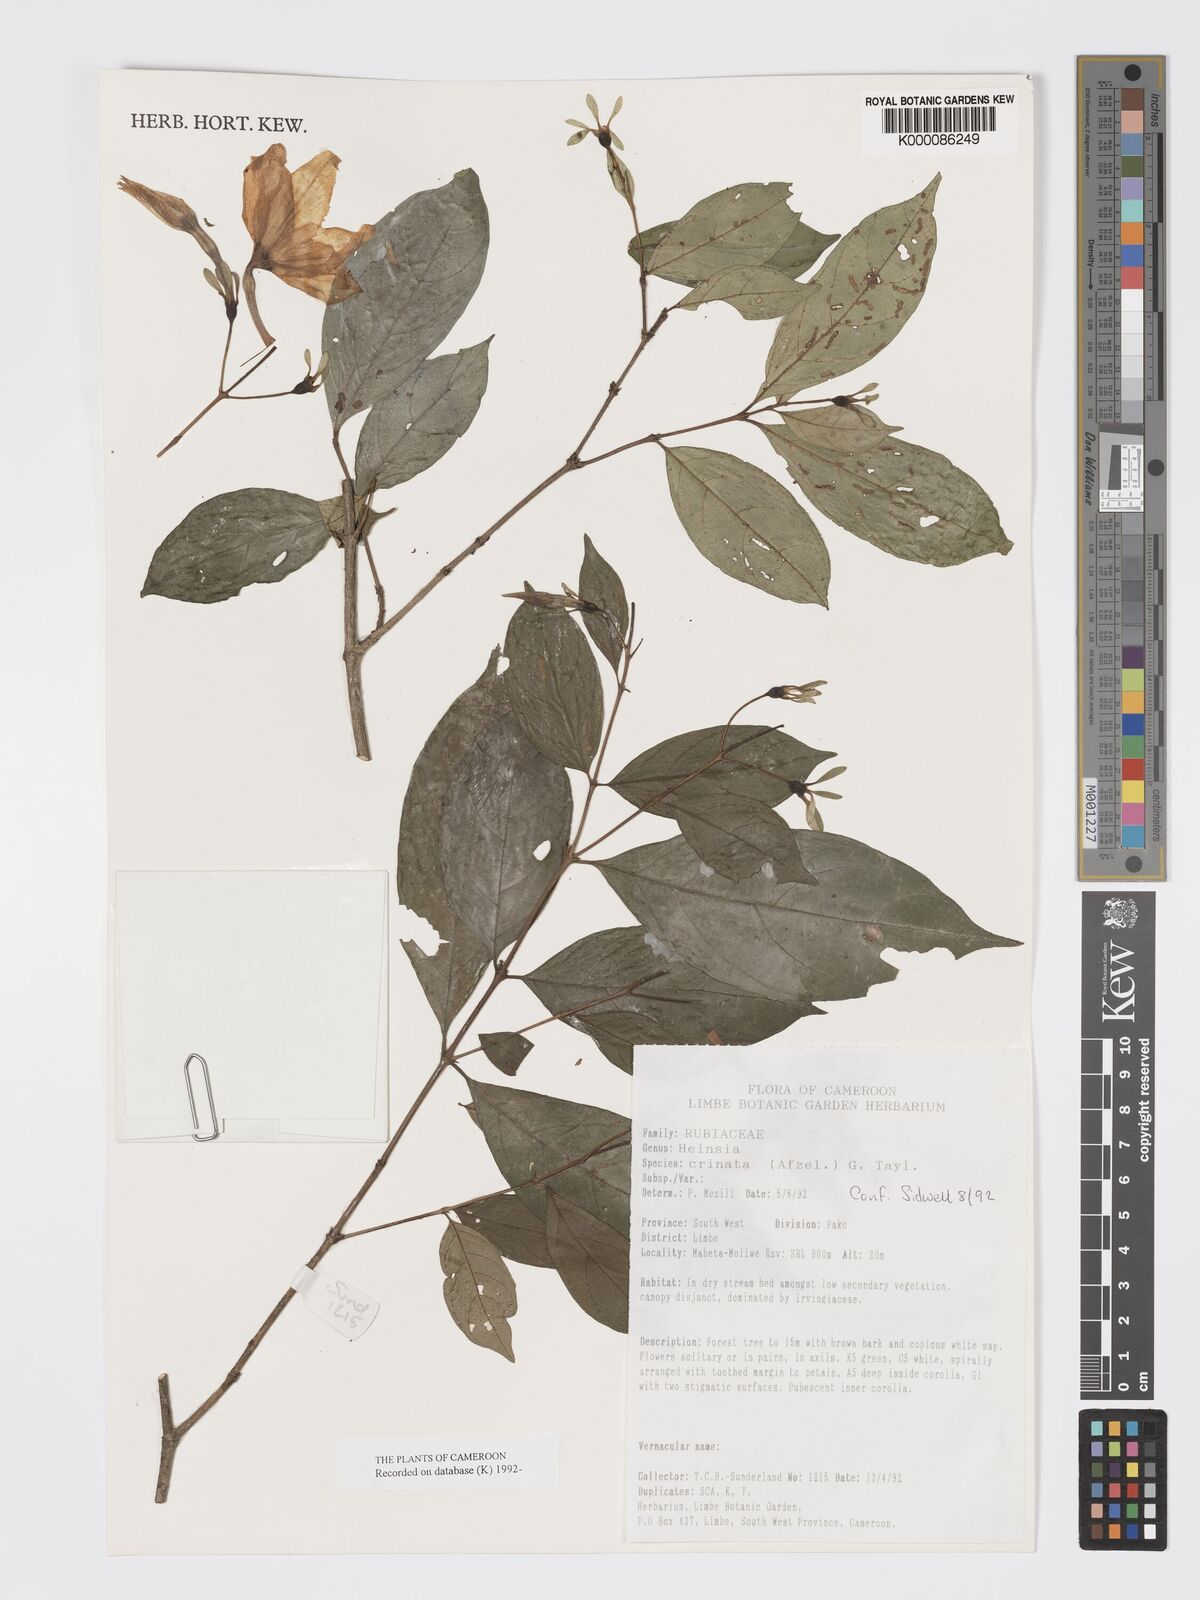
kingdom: Plantae
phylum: Tracheophyta
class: Magnoliopsida
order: Gentianales
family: Rubiaceae
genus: Heinsia
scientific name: Heinsia crinita
